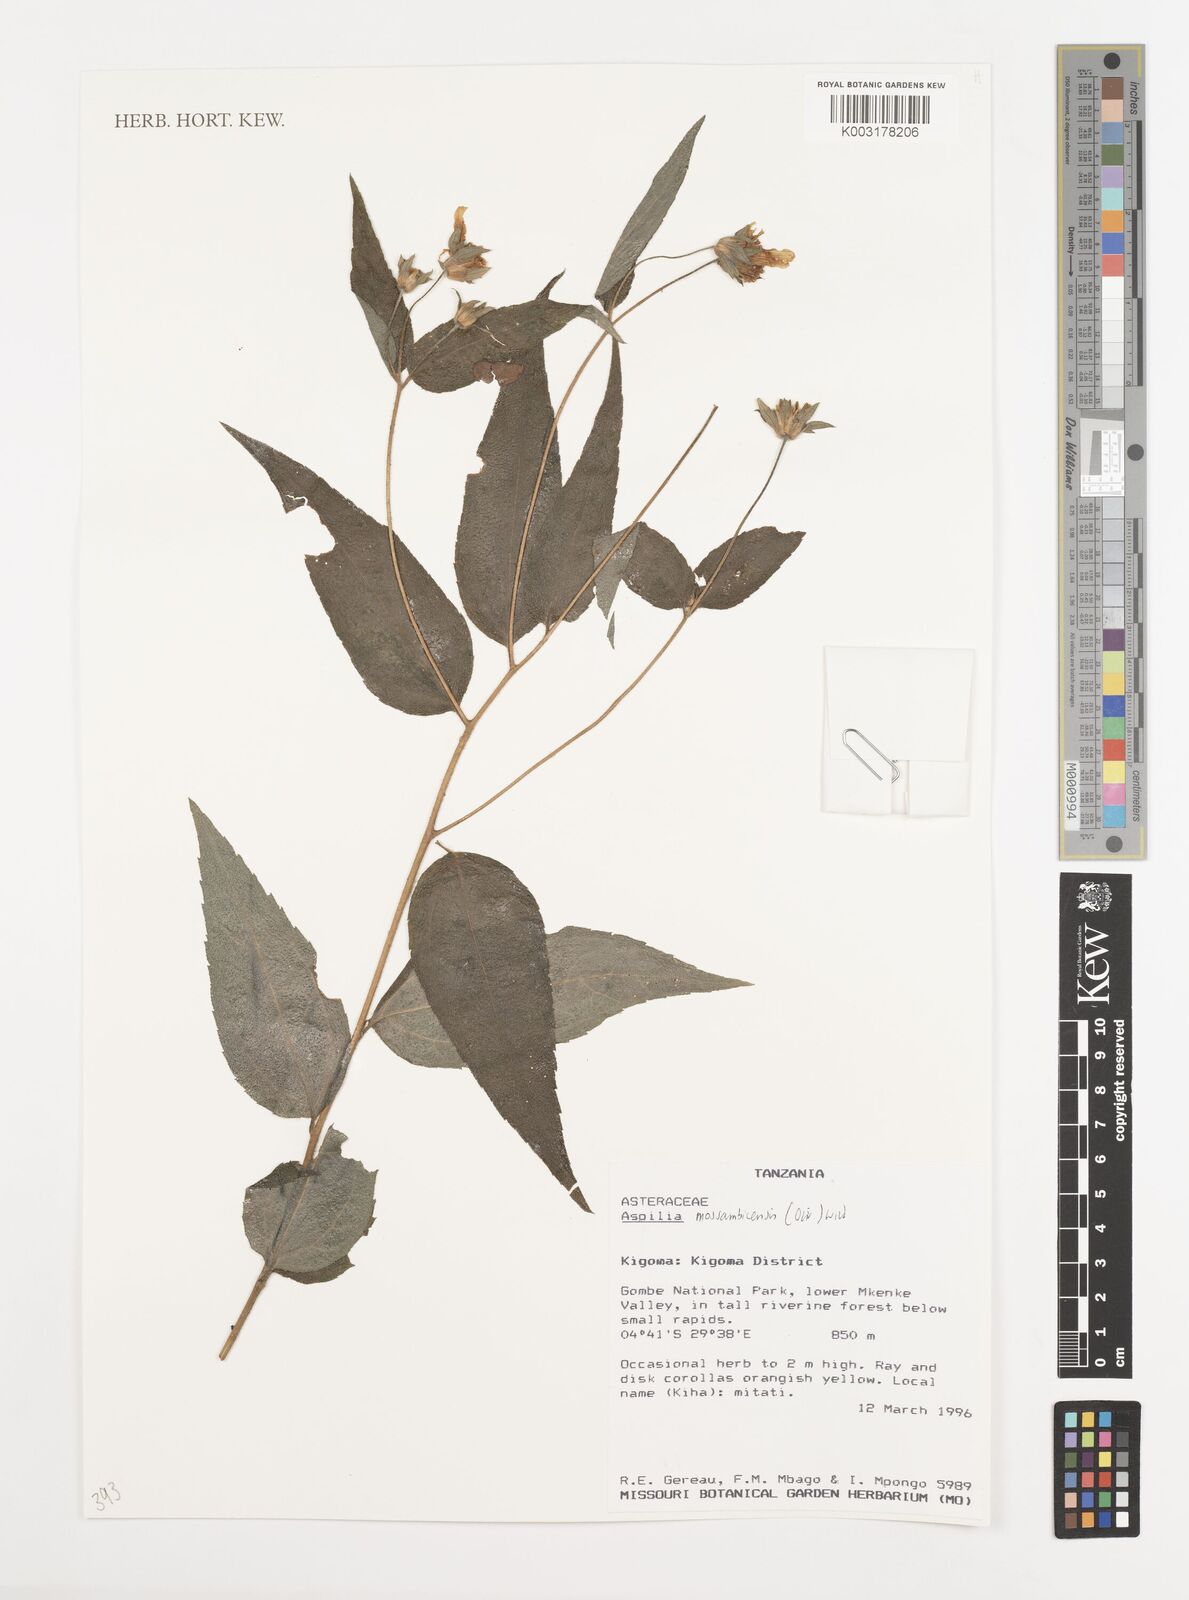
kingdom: Plantae
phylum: Tracheophyta
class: Magnoliopsida
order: Asterales
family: Asteraceae
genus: Aspilia
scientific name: Aspilia mossambicensis
